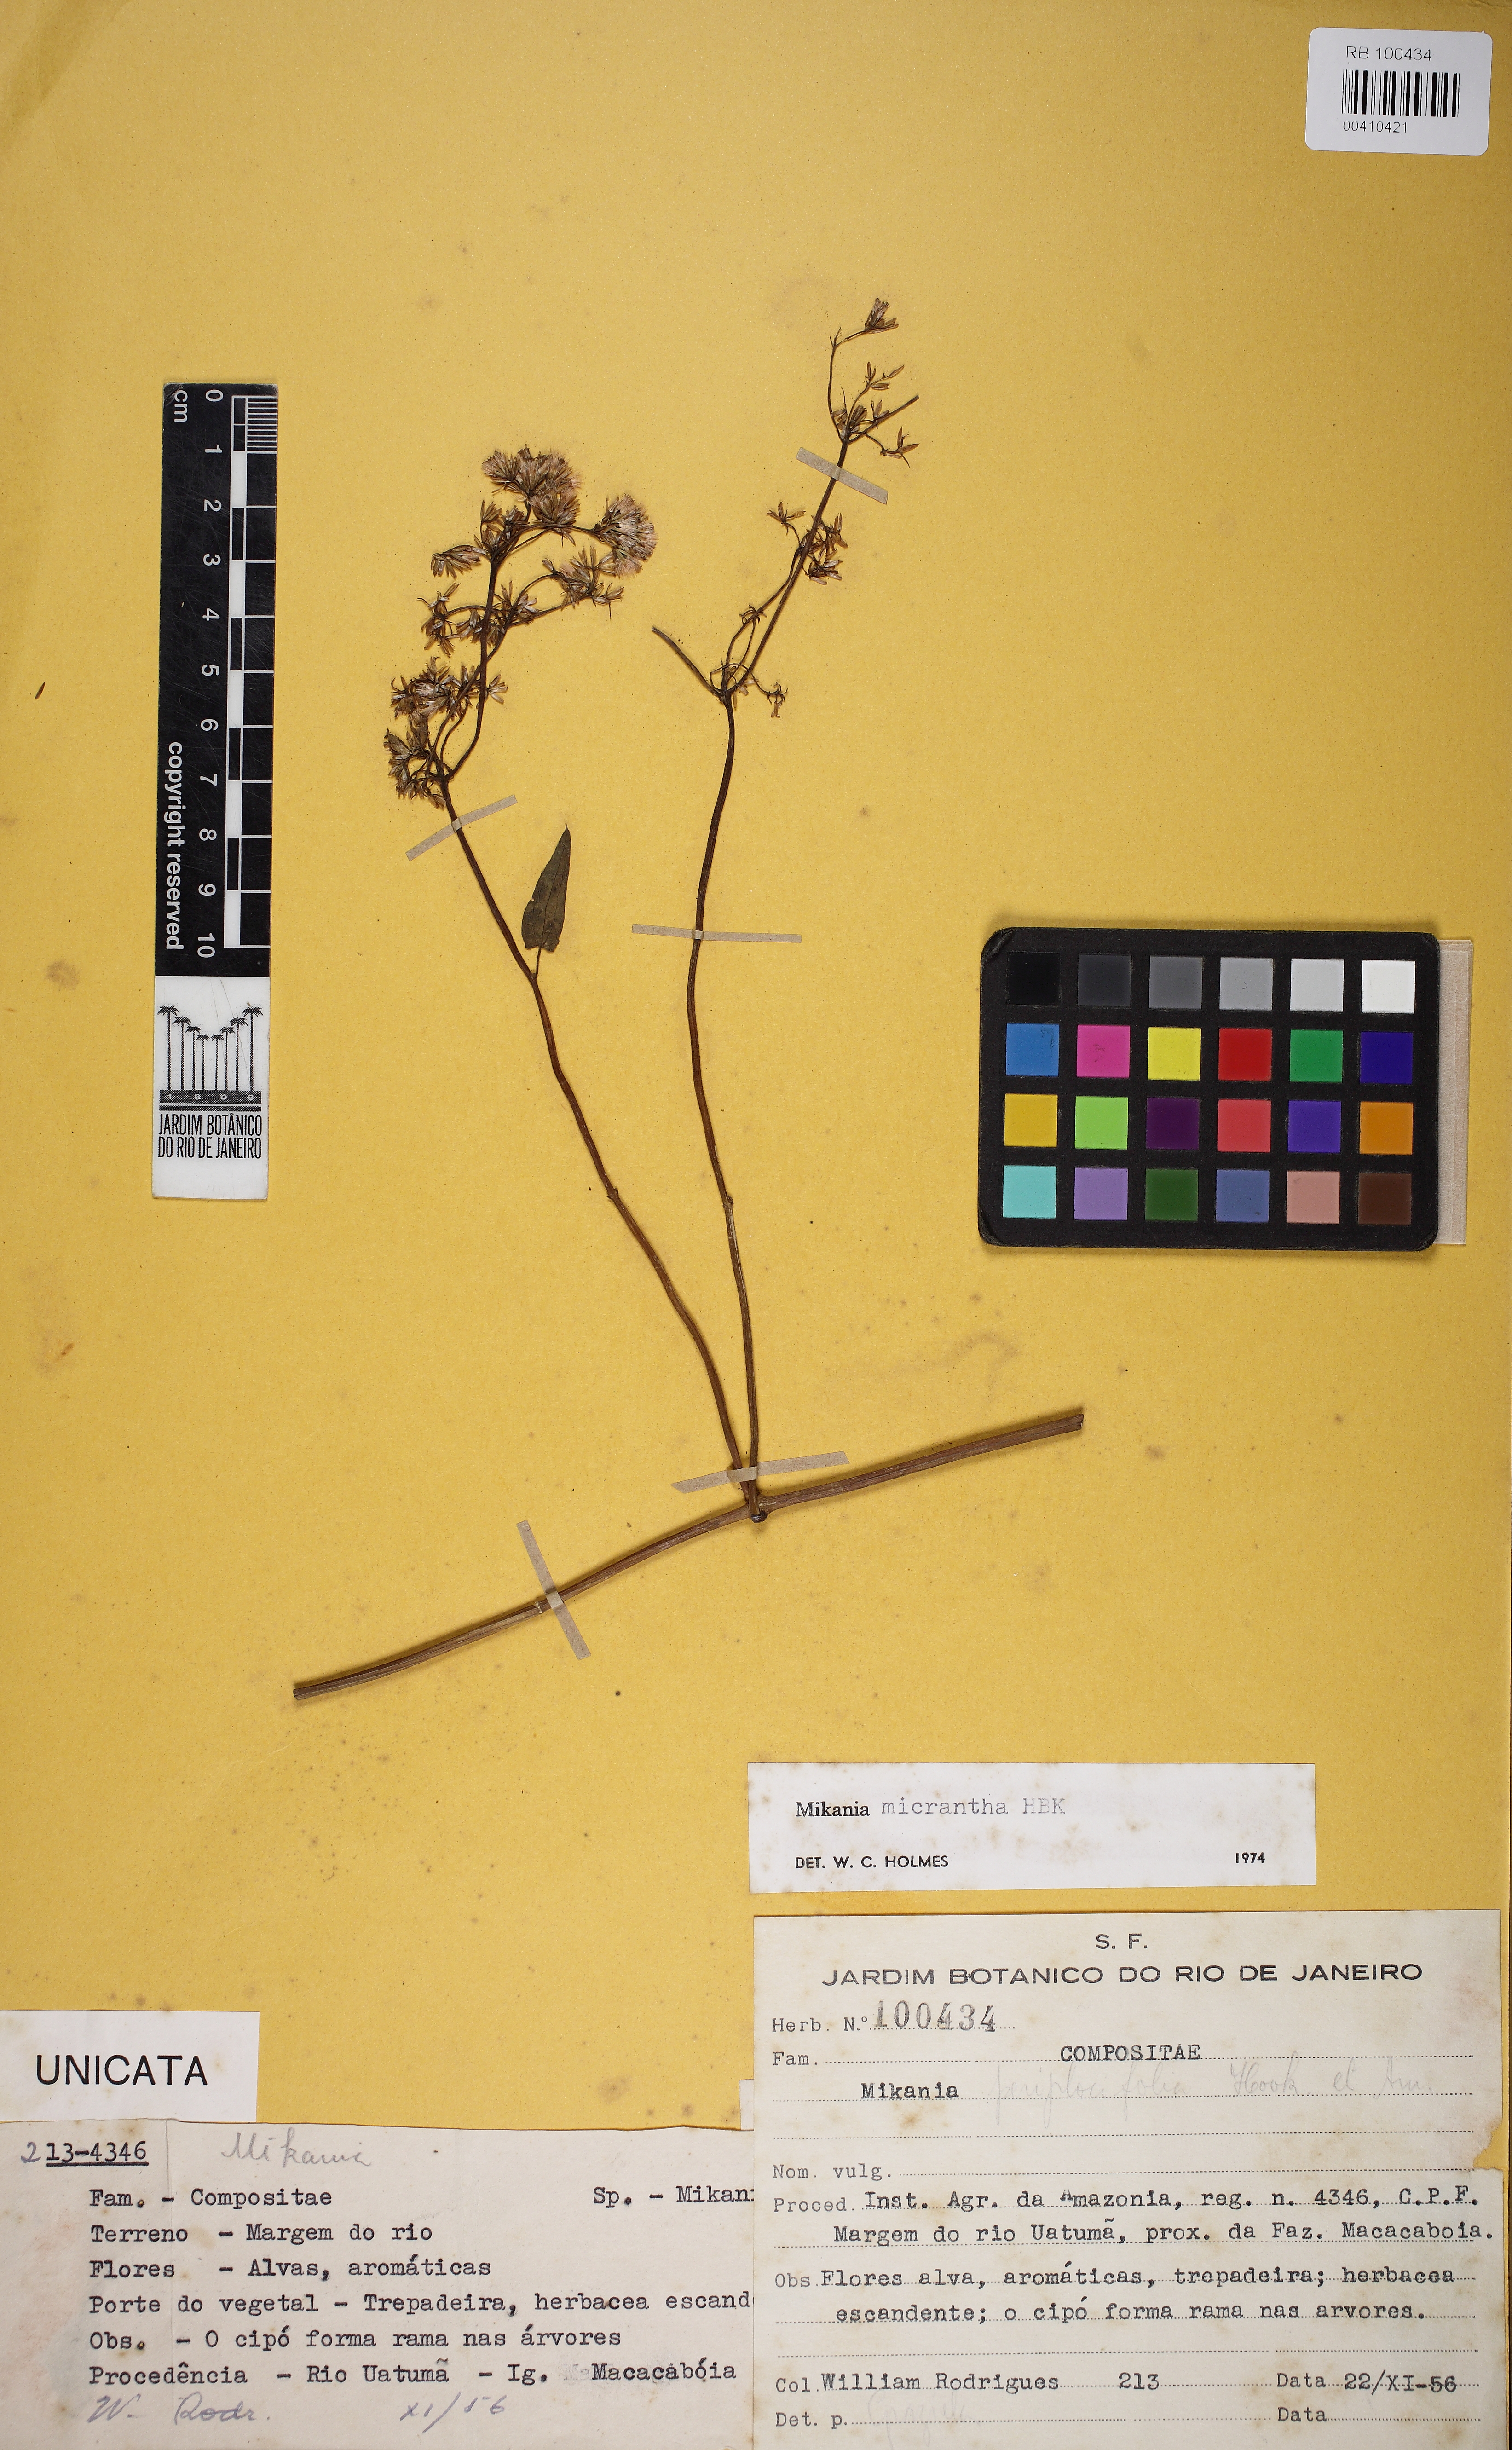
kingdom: Plantae
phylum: Tracheophyta
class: Magnoliopsida
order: Asterales
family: Asteraceae
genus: Mikania
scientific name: Mikania micrantha
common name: Mile-a-minute
